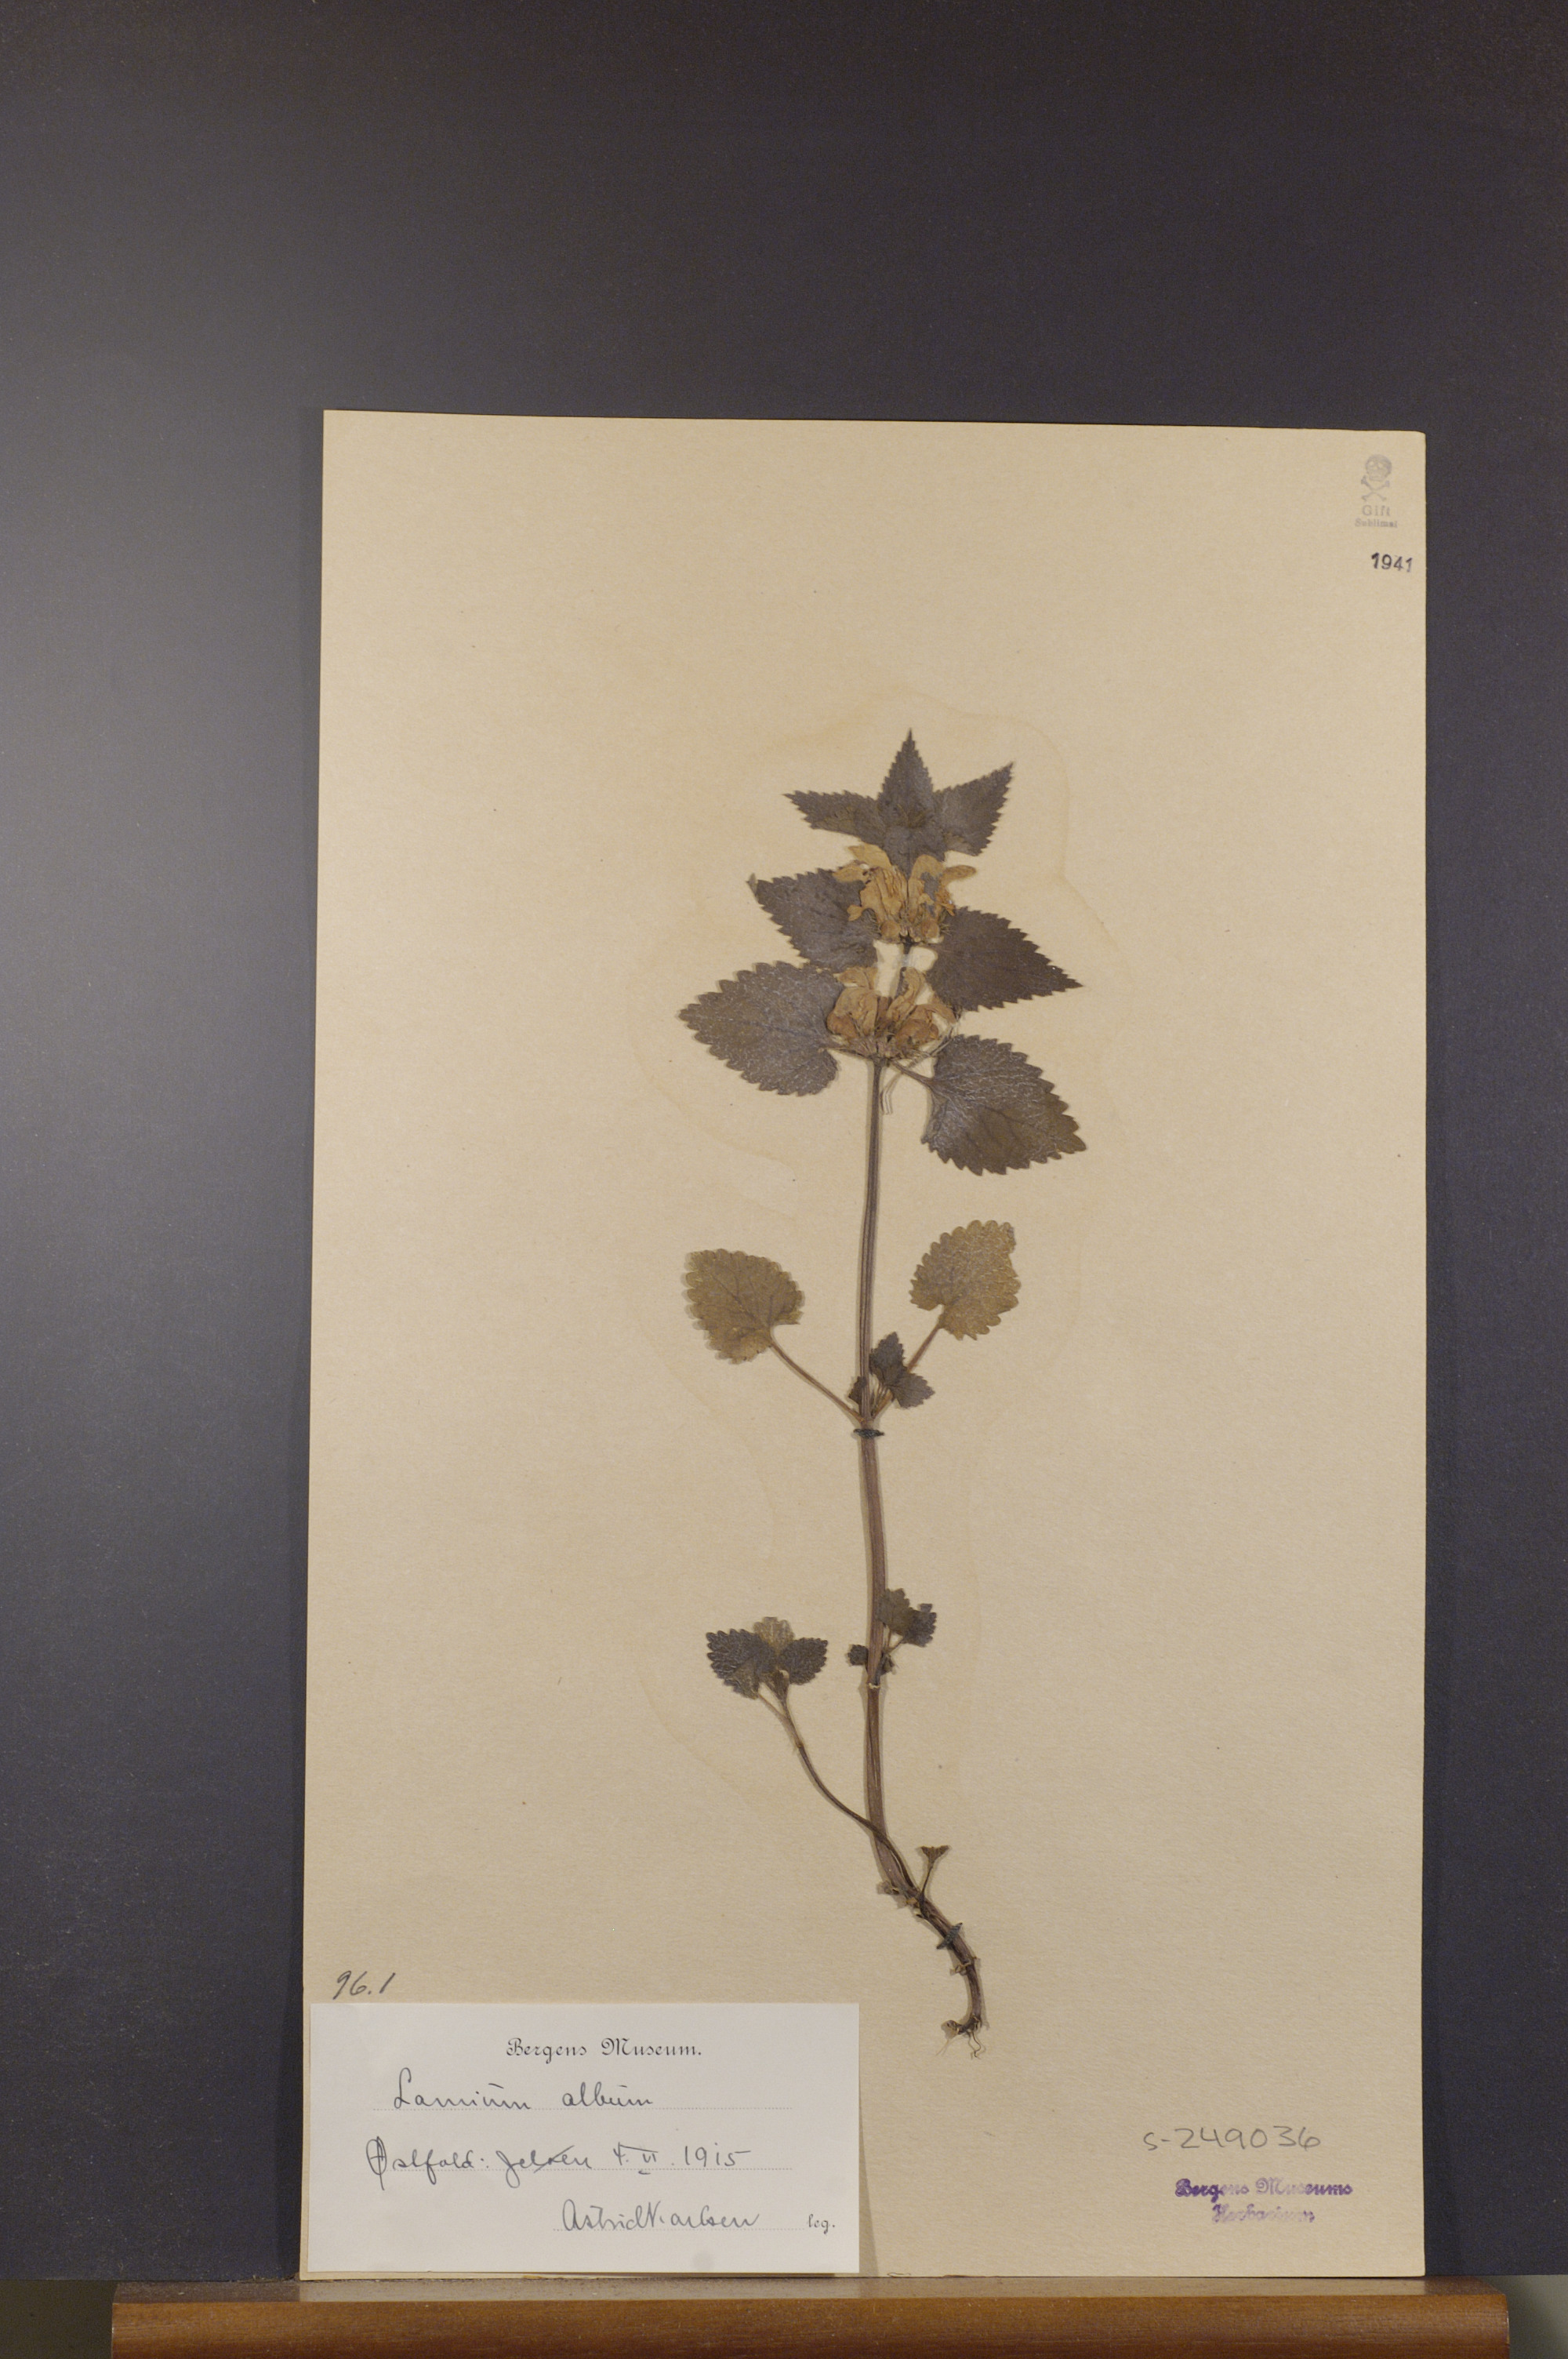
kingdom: Plantae
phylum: Tracheophyta
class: Magnoliopsida
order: Lamiales
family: Lamiaceae
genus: Lamium
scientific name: Lamium album
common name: White dead-nettle
